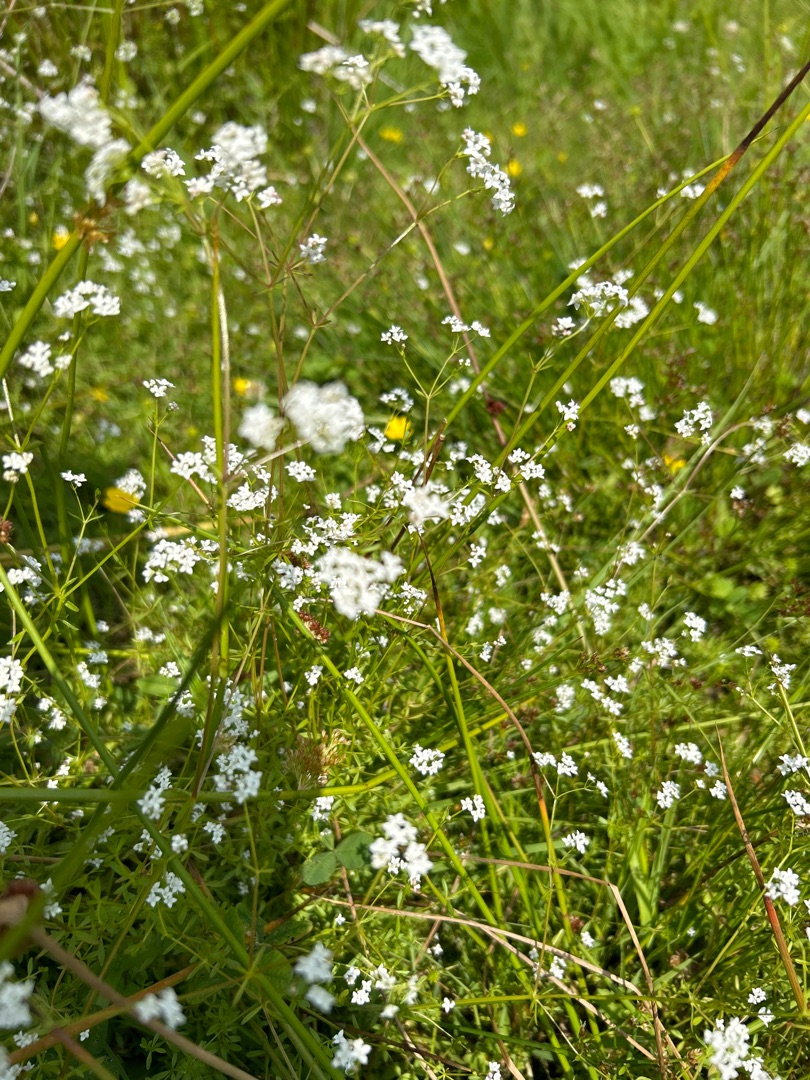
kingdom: Plantae
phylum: Tracheophyta
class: Magnoliopsida
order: Gentianales
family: Rubiaceae
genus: Galium
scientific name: Galium palustre
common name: Kær-snerre
